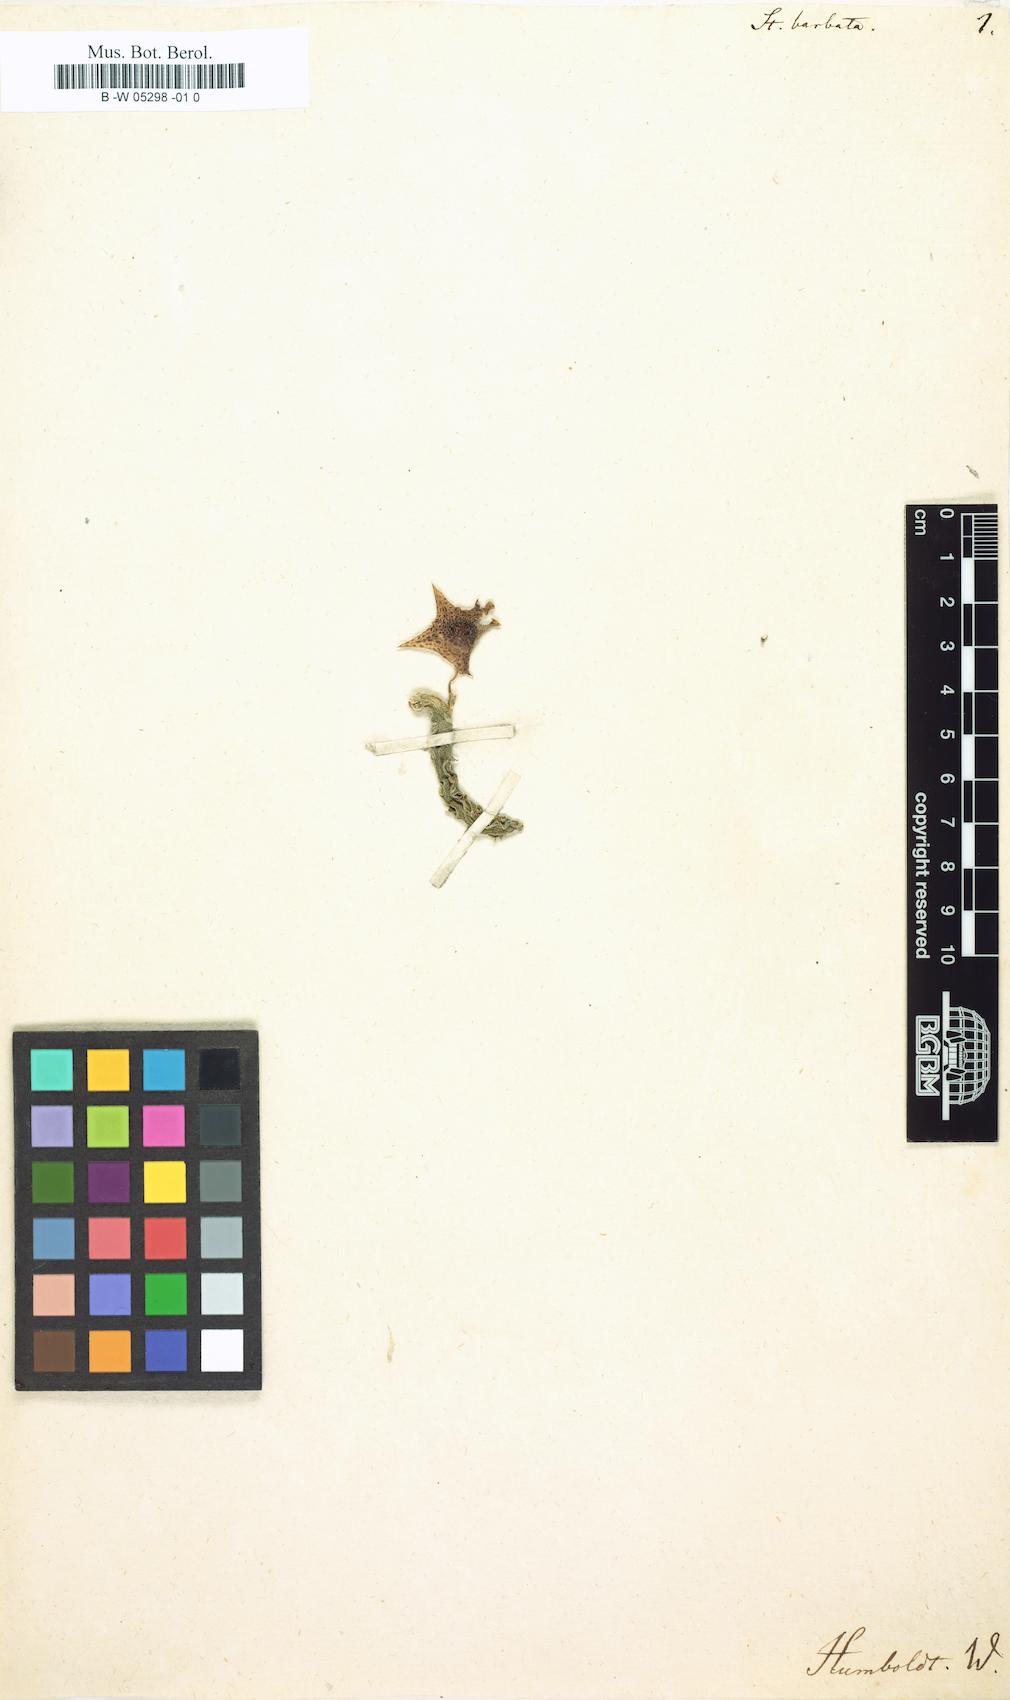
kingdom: Plantae
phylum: Tracheophyta
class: Magnoliopsida
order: Gentianales
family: Apocynaceae
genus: Ceropegia
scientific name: Ceropegia
